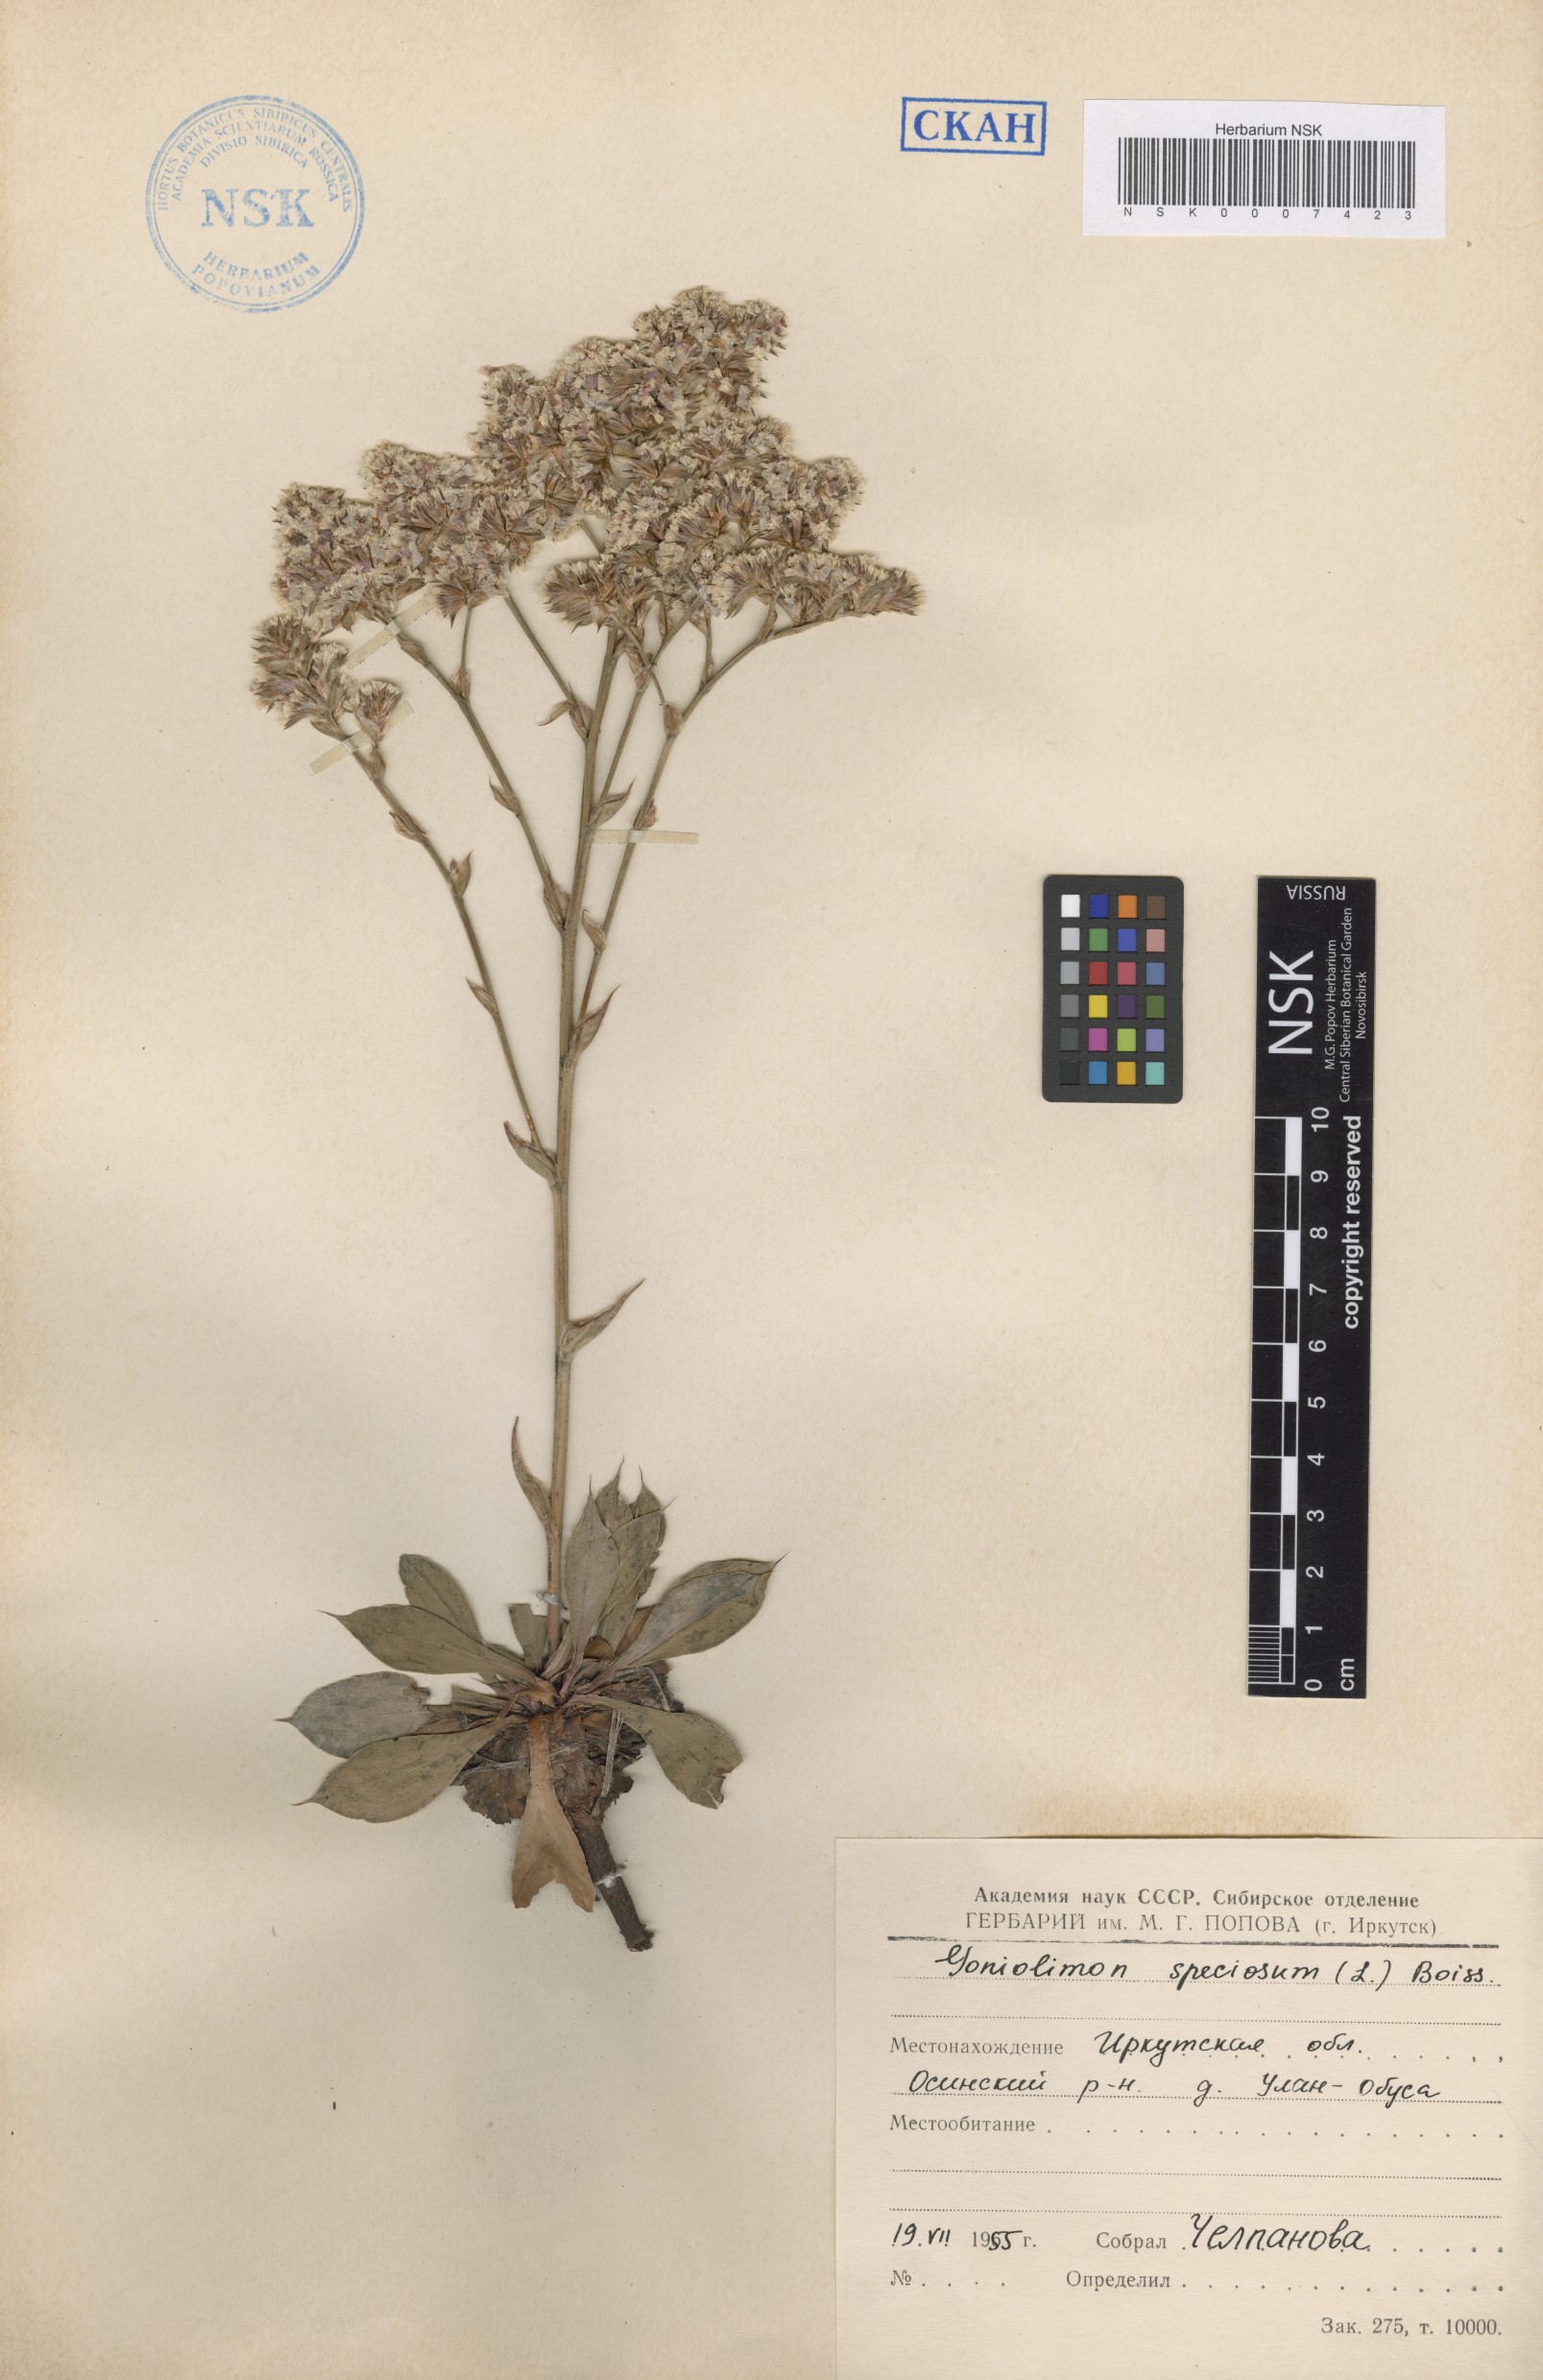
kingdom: Plantae
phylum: Tracheophyta
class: Magnoliopsida
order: Caryophyllales
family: Plumbaginaceae
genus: Goniolimon
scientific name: Goniolimon speciosum
